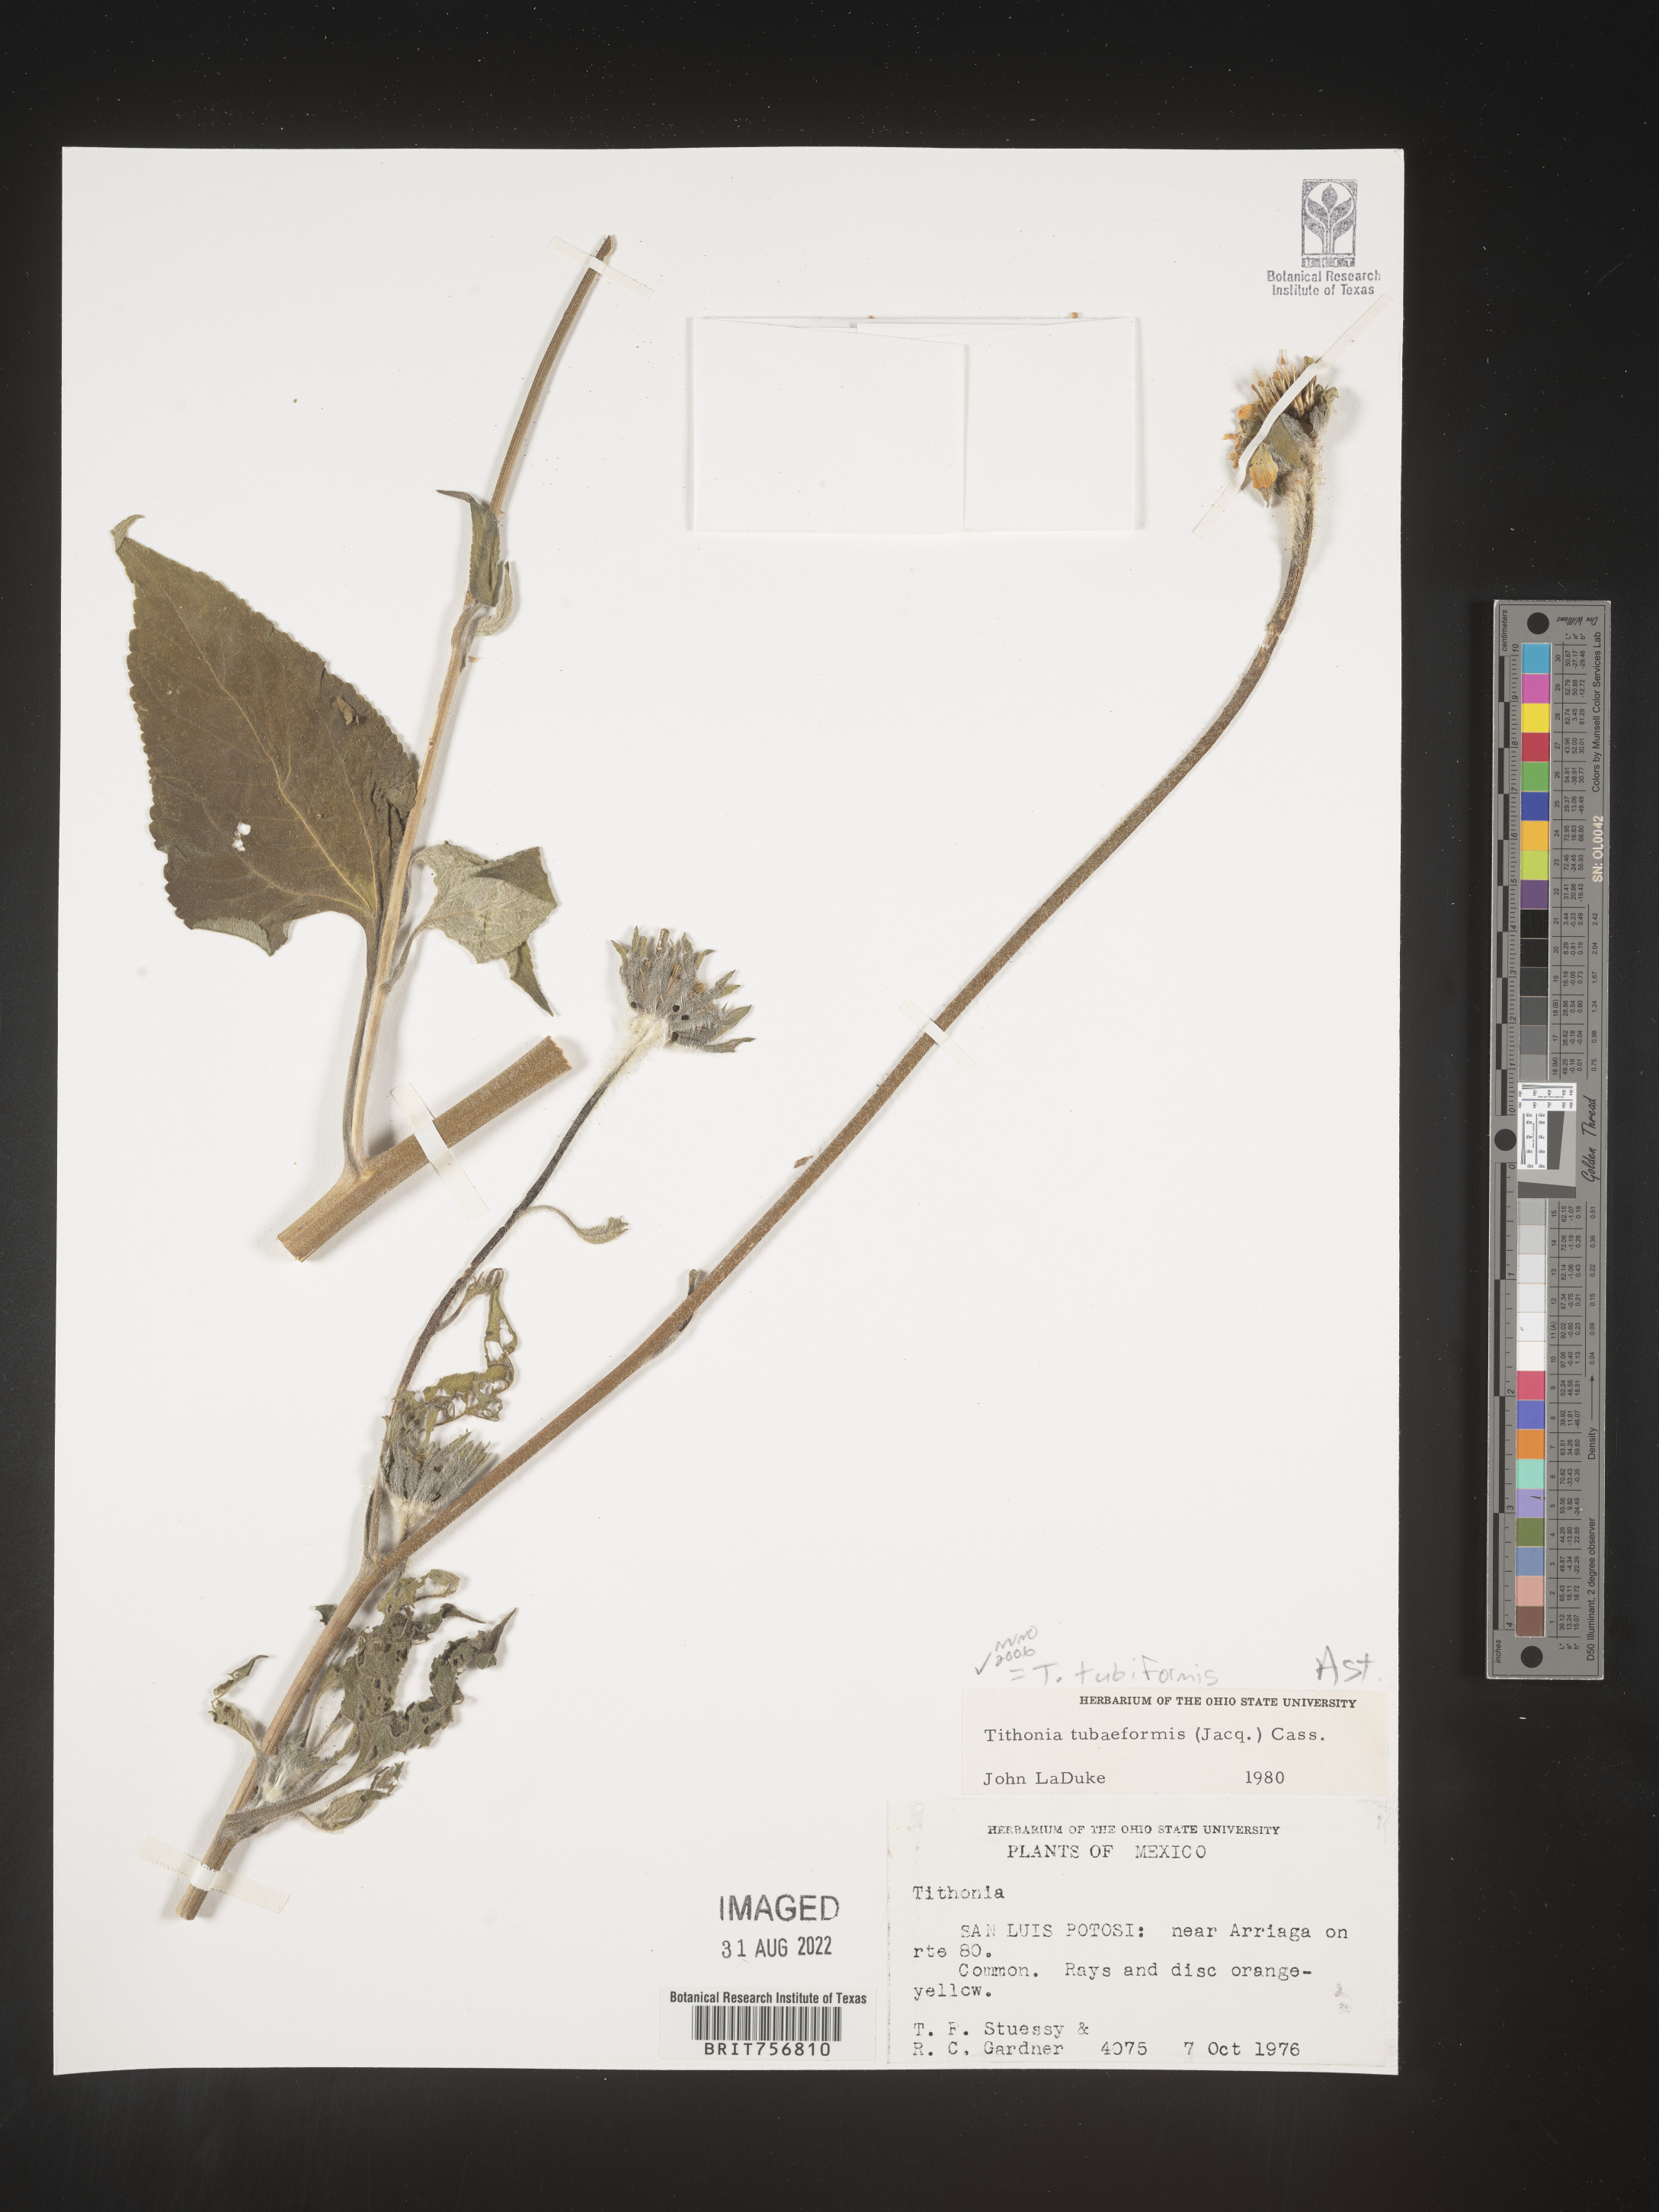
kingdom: Plantae
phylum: Tracheophyta
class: Magnoliopsida
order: Asterales
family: Asteraceae
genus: Tithonia
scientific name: Tithonia
